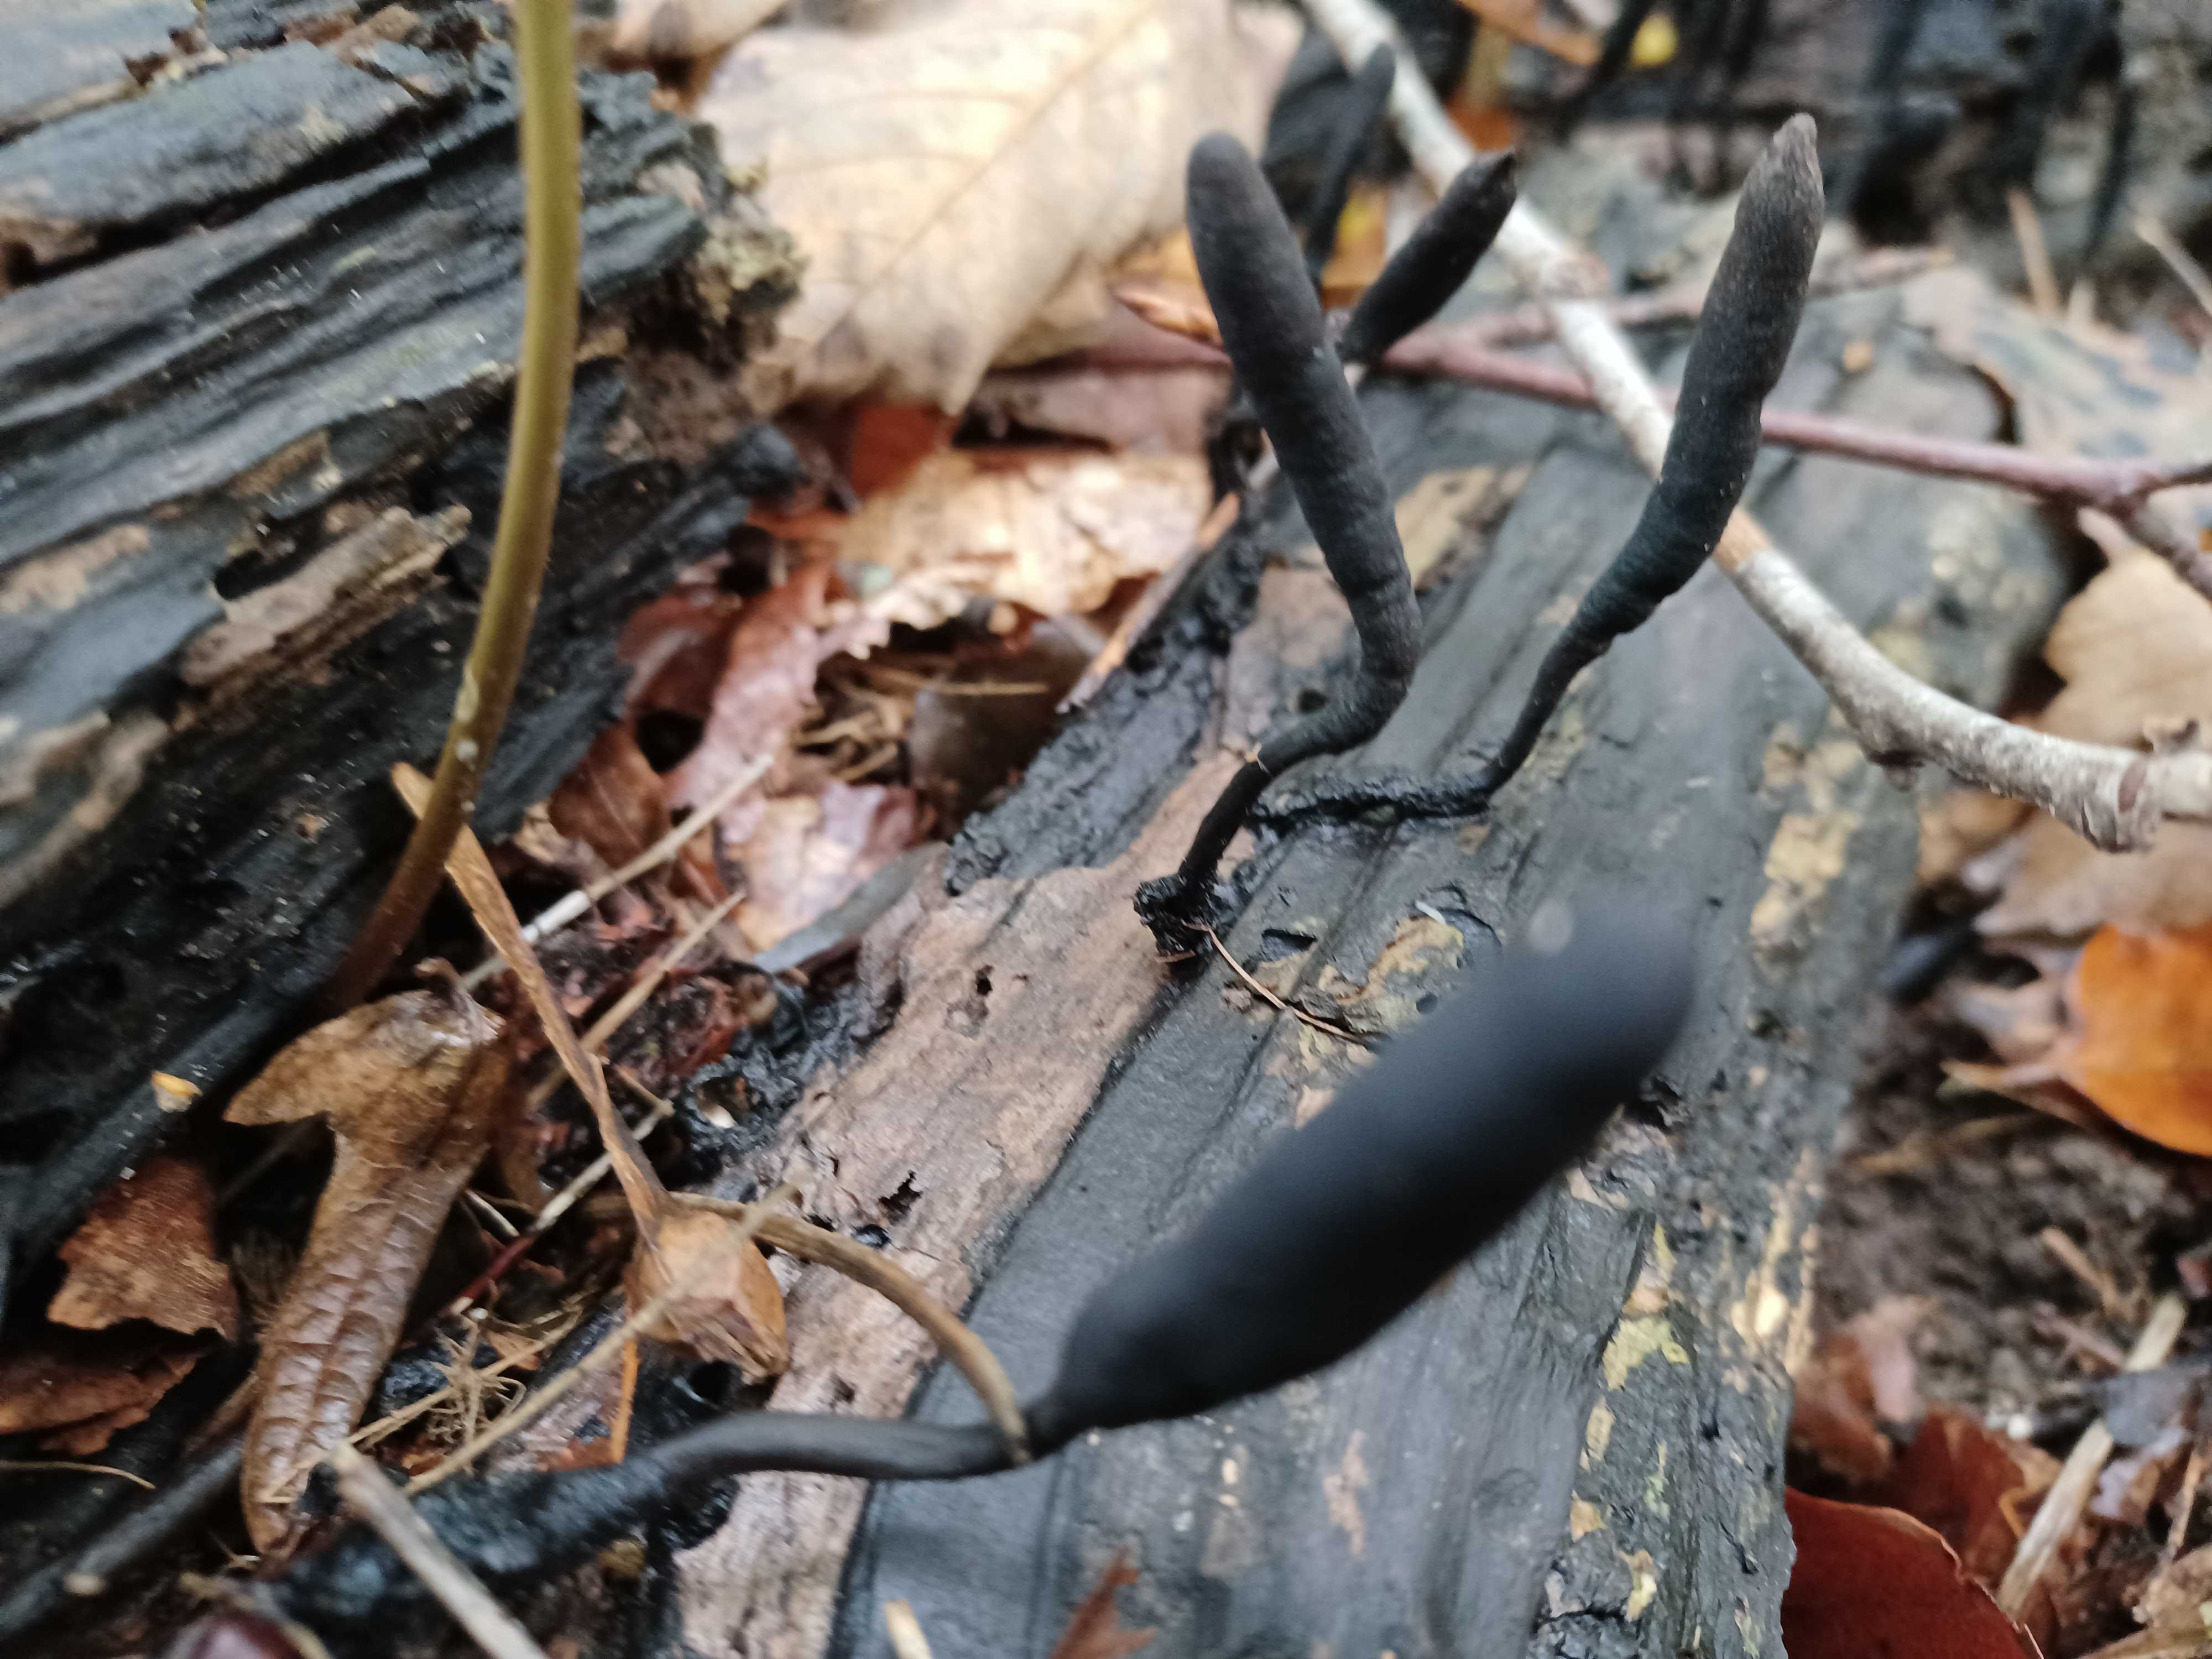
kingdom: Fungi
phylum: Ascomycota
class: Sordariomycetes
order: Xylariales
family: Xylariaceae
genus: Xylaria
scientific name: Xylaria longipes
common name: slank stødsvamp
